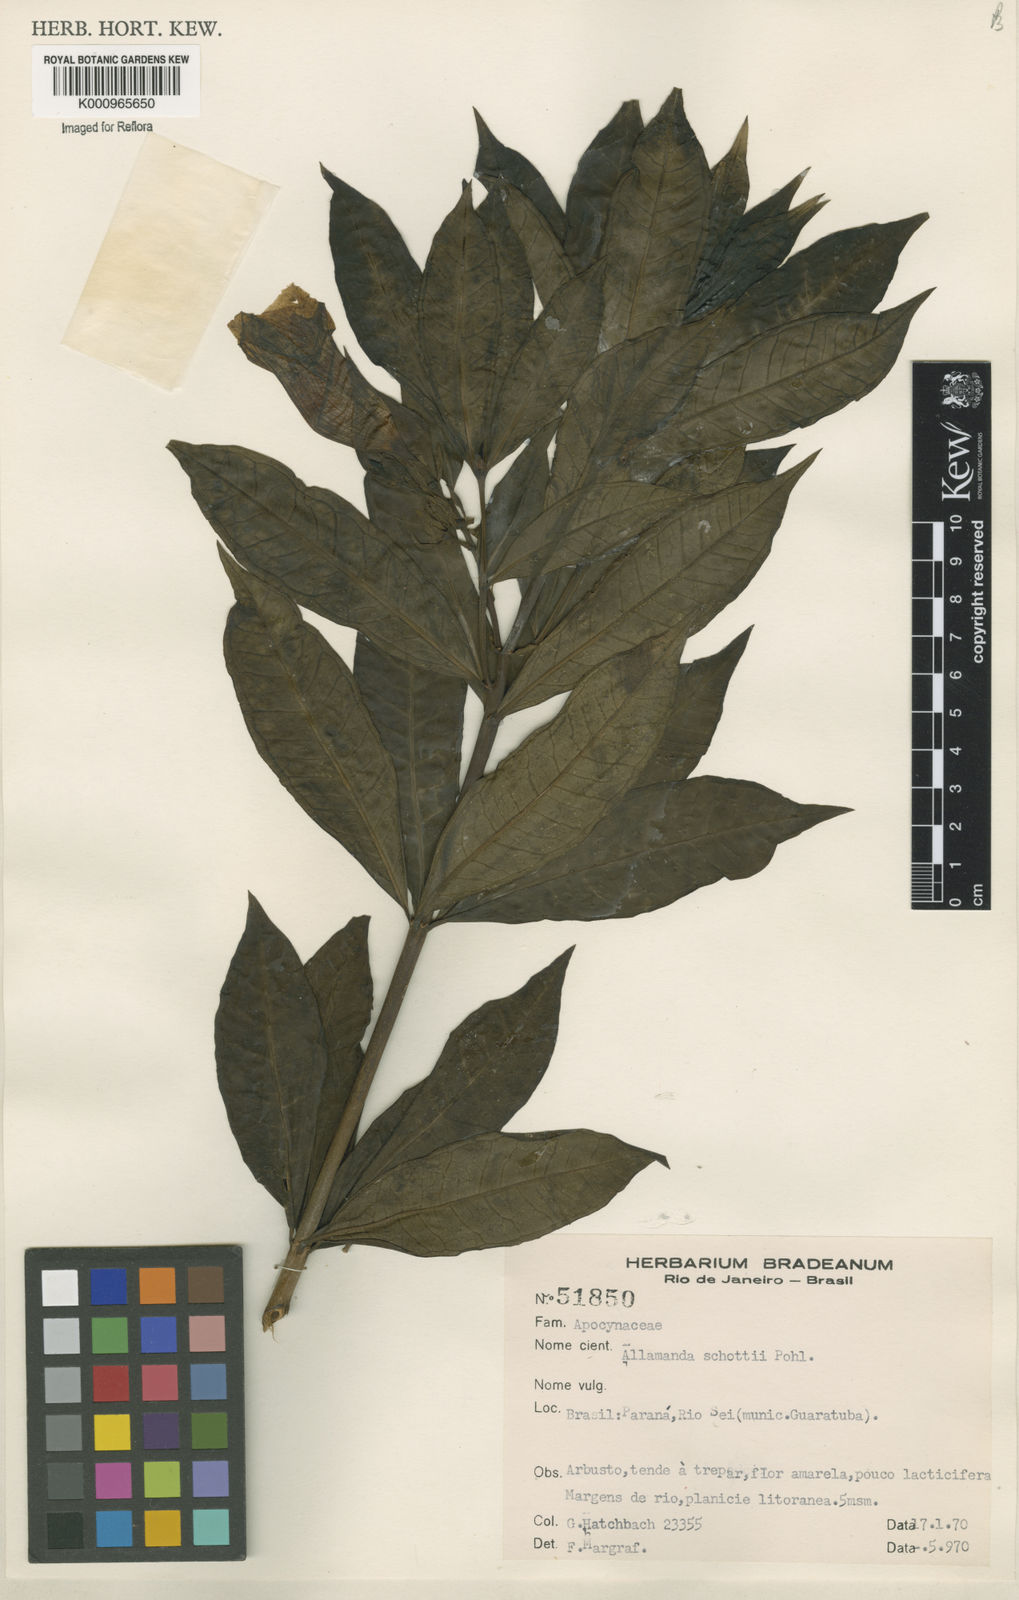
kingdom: Plantae
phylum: Tracheophyta
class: Magnoliopsida
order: Gentianales
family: Apocynaceae
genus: Allamanda
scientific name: Allamanda schottii
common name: Bush allamanda
